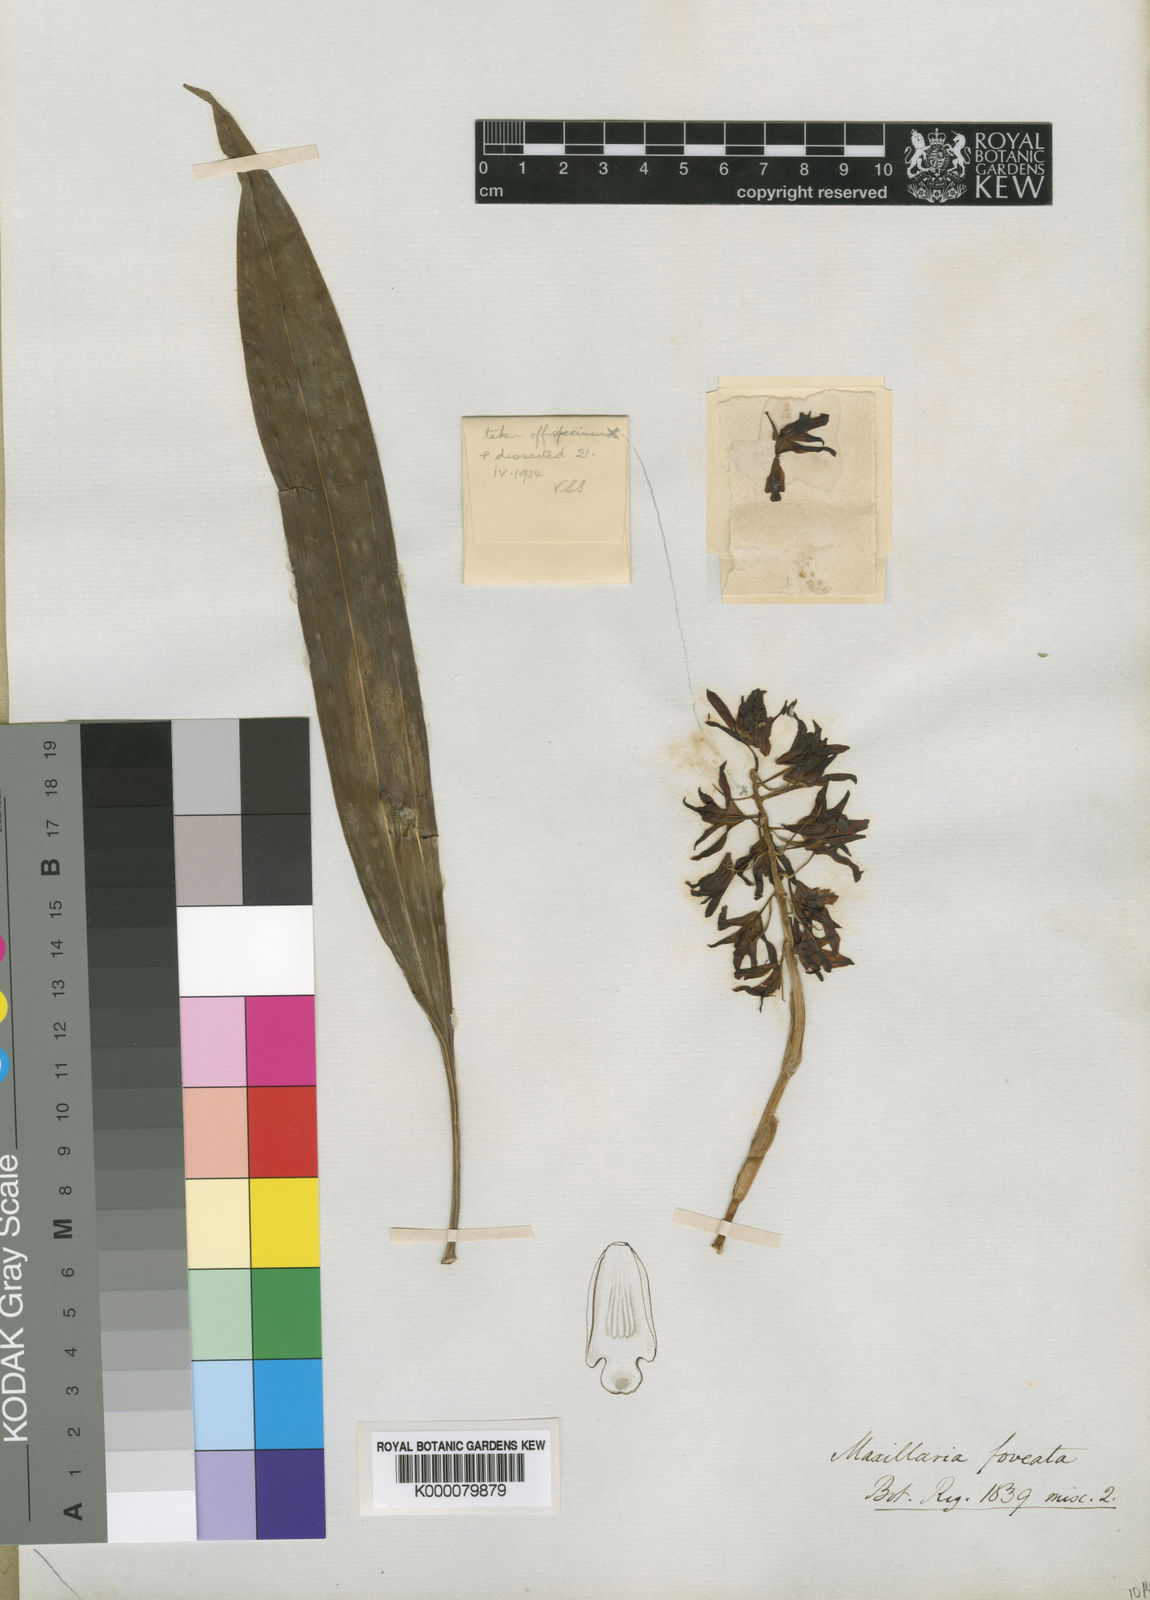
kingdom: Plantae
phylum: Tracheophyta
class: Liliopsida
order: Asparagales
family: Orchidaceae
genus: Xylobium
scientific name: Xylobium foveatum
